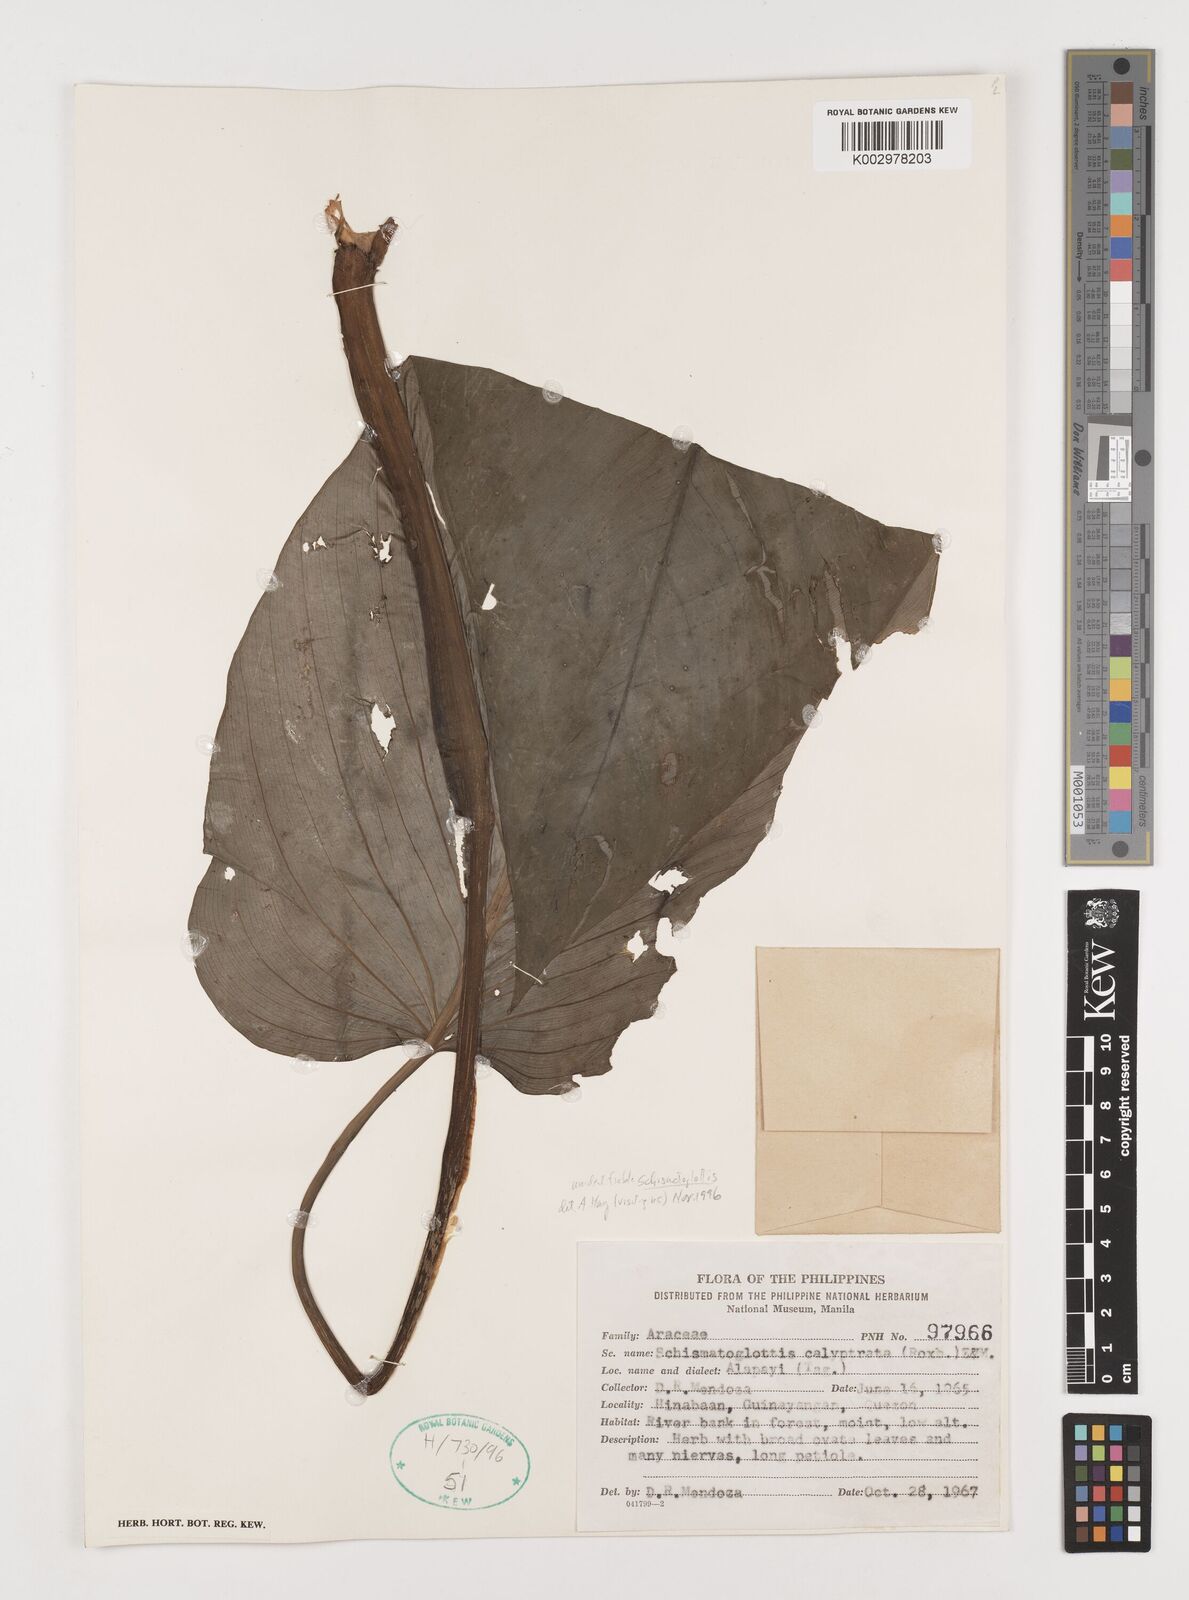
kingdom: Plantae
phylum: Tracheophyta
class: Liliopsida
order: Alismatales
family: Araceae
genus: Schismatoglottis
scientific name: Schismatoglottis
